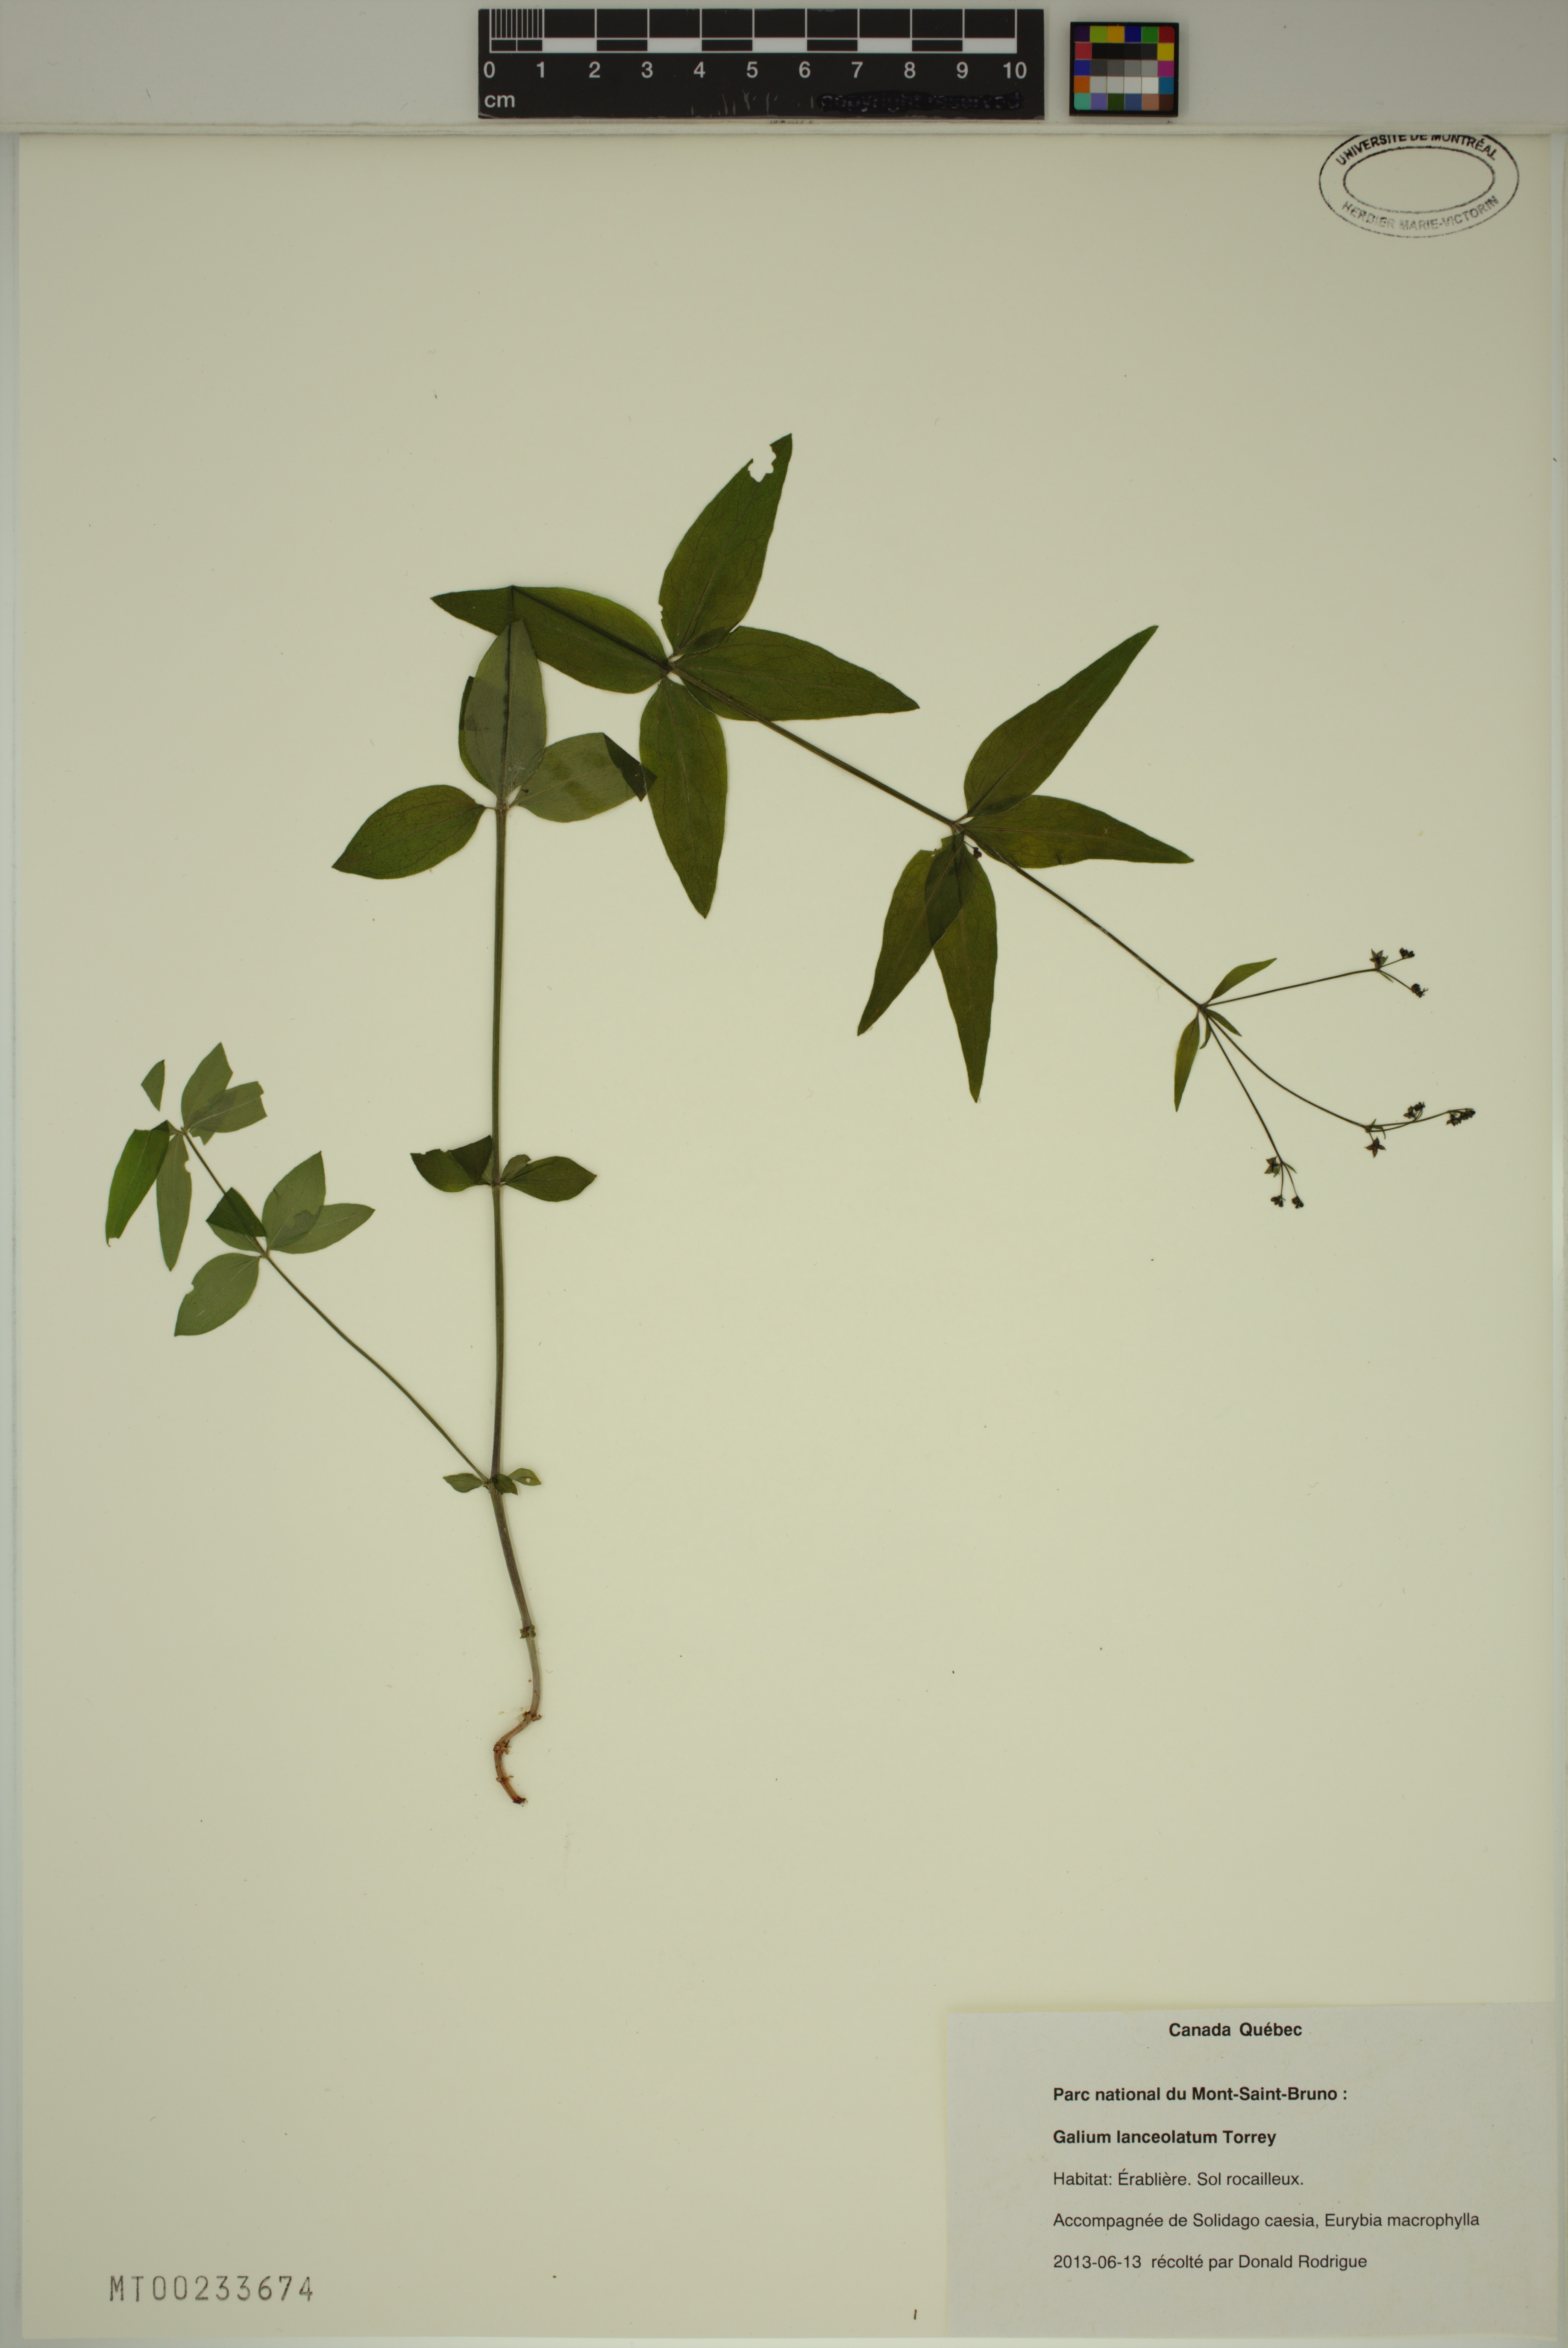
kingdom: Plantae
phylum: Tracheophyta
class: Magnoliopsida
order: Gentianales
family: Rubiaceae
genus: Galium
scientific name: Galium lanceolatum
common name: Lance-leaved wild licorice
